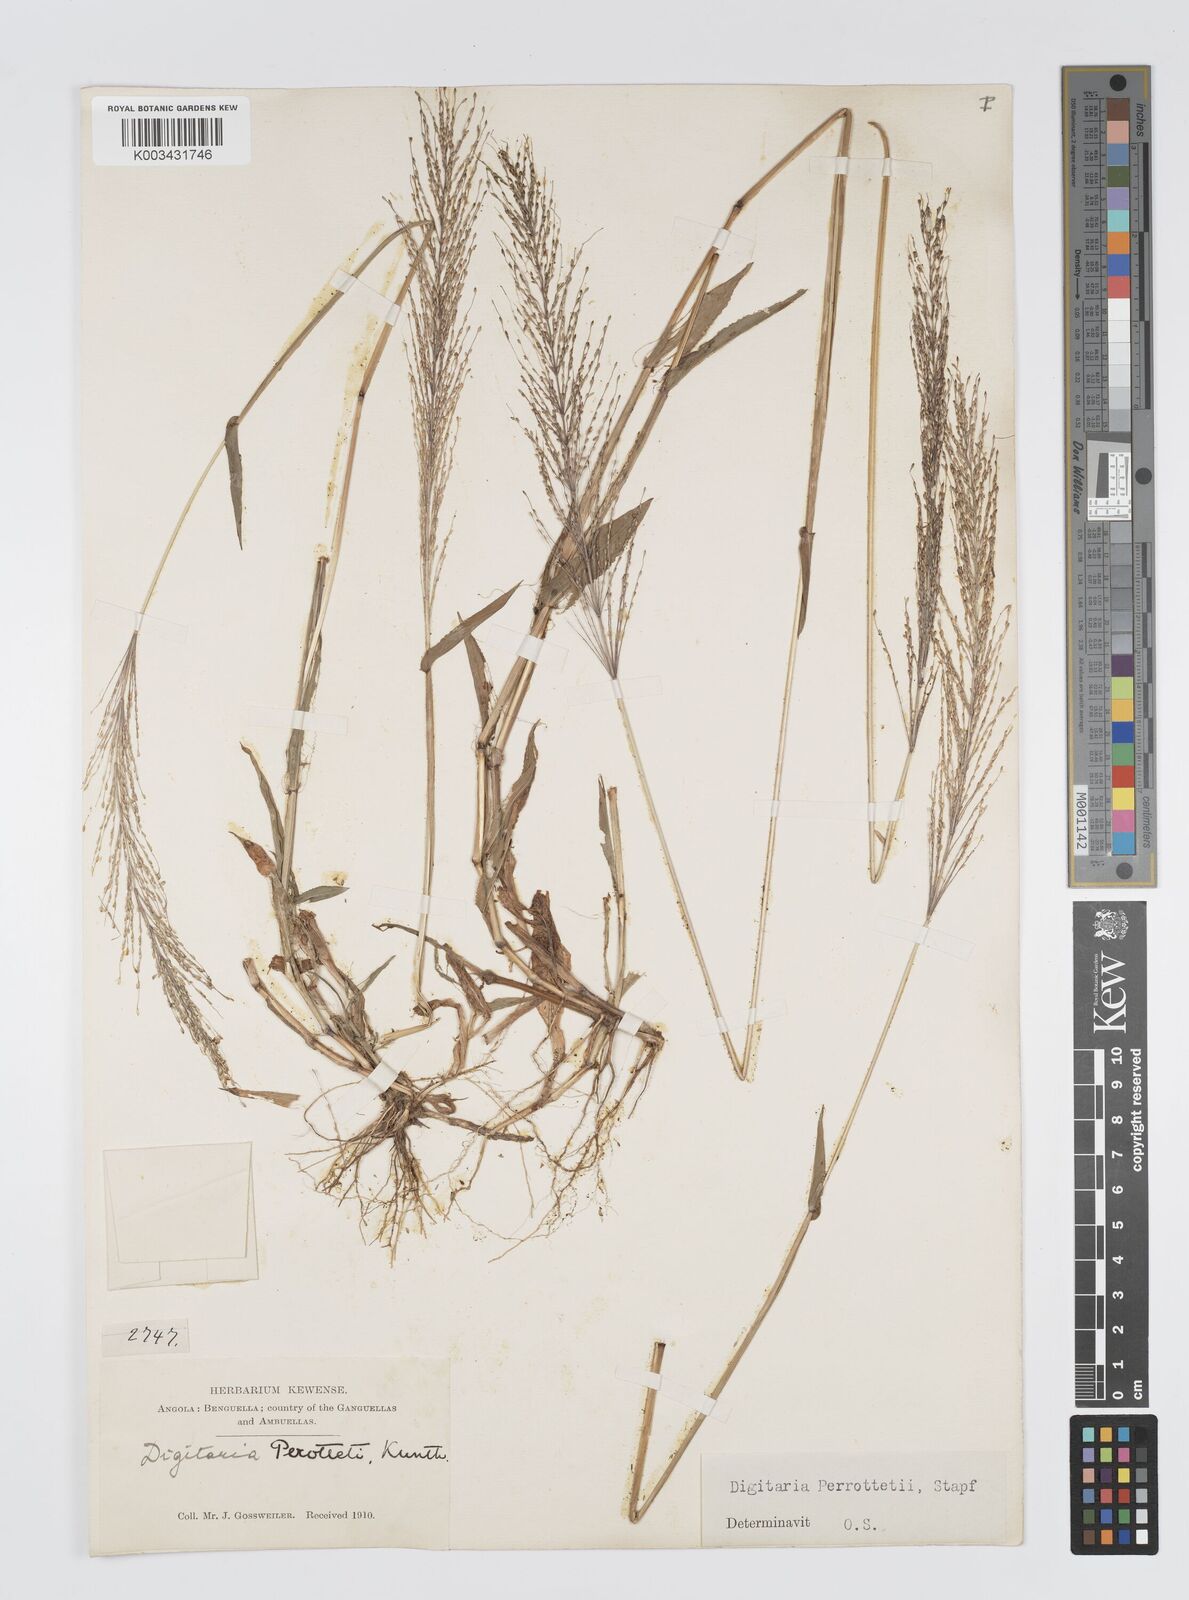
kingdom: Plantae
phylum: Tracheophyta
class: Liliopsida
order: Poales
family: Poaceae
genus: Digitaria
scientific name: Digitaria perrottetii
